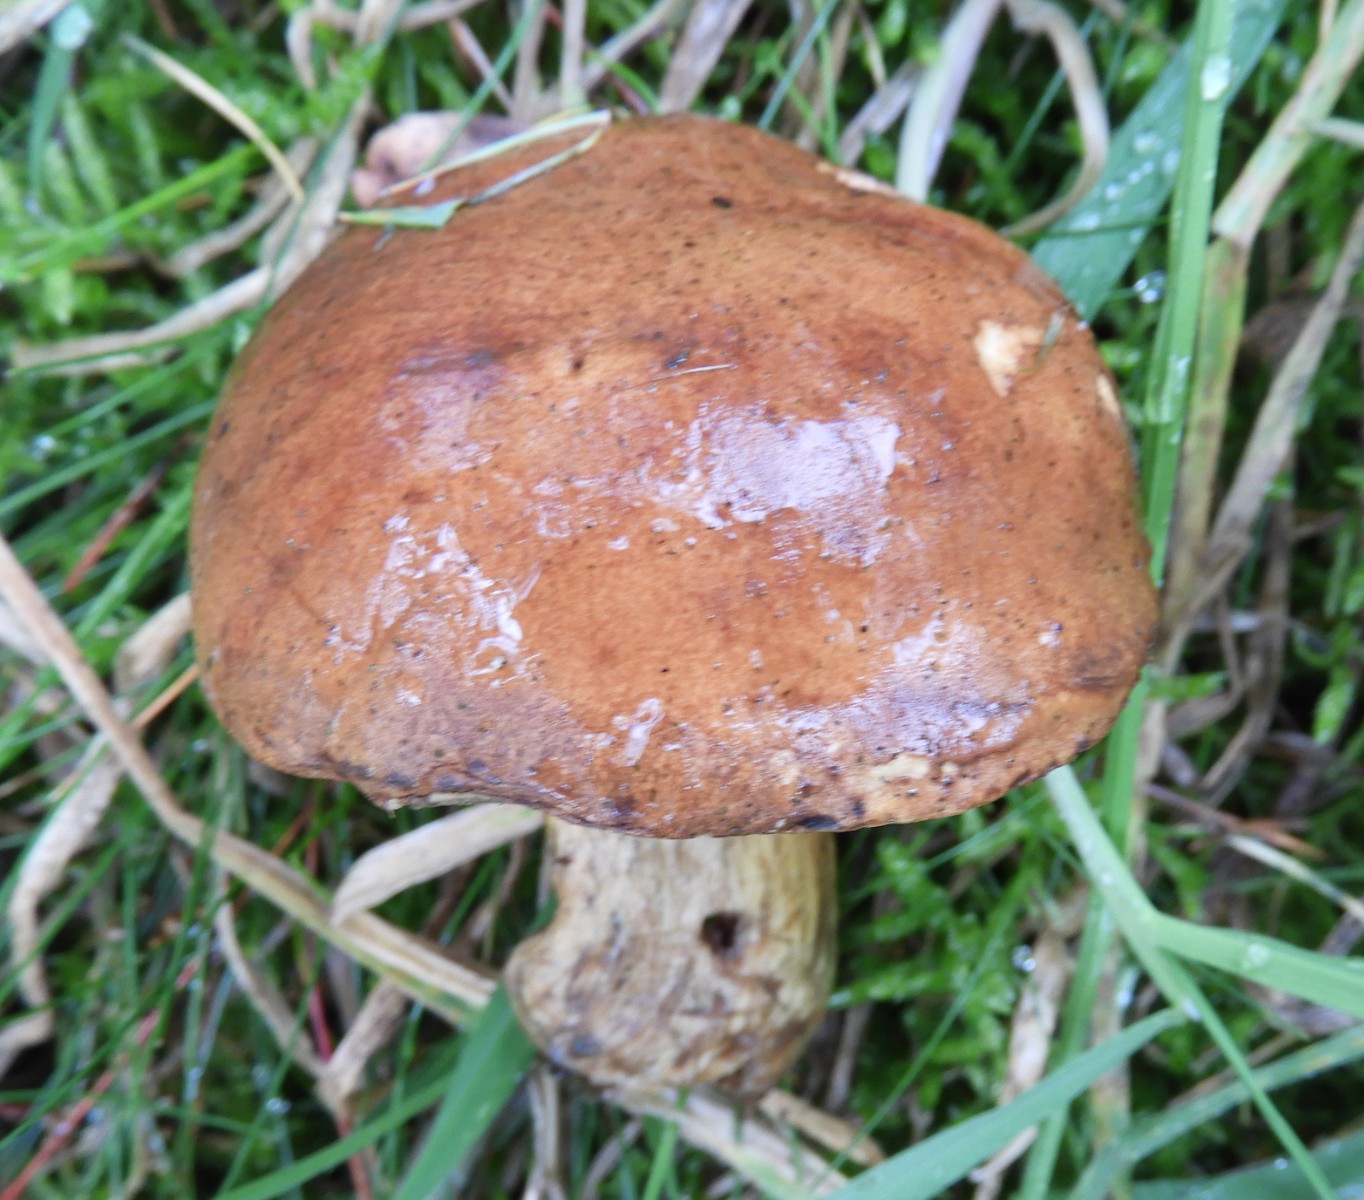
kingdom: Fungi
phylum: Basidiomycota
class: Agaricomycetes
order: Boletales
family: Boletaceae
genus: Imleria
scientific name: Imleria badia
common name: brunstokket rørhat
